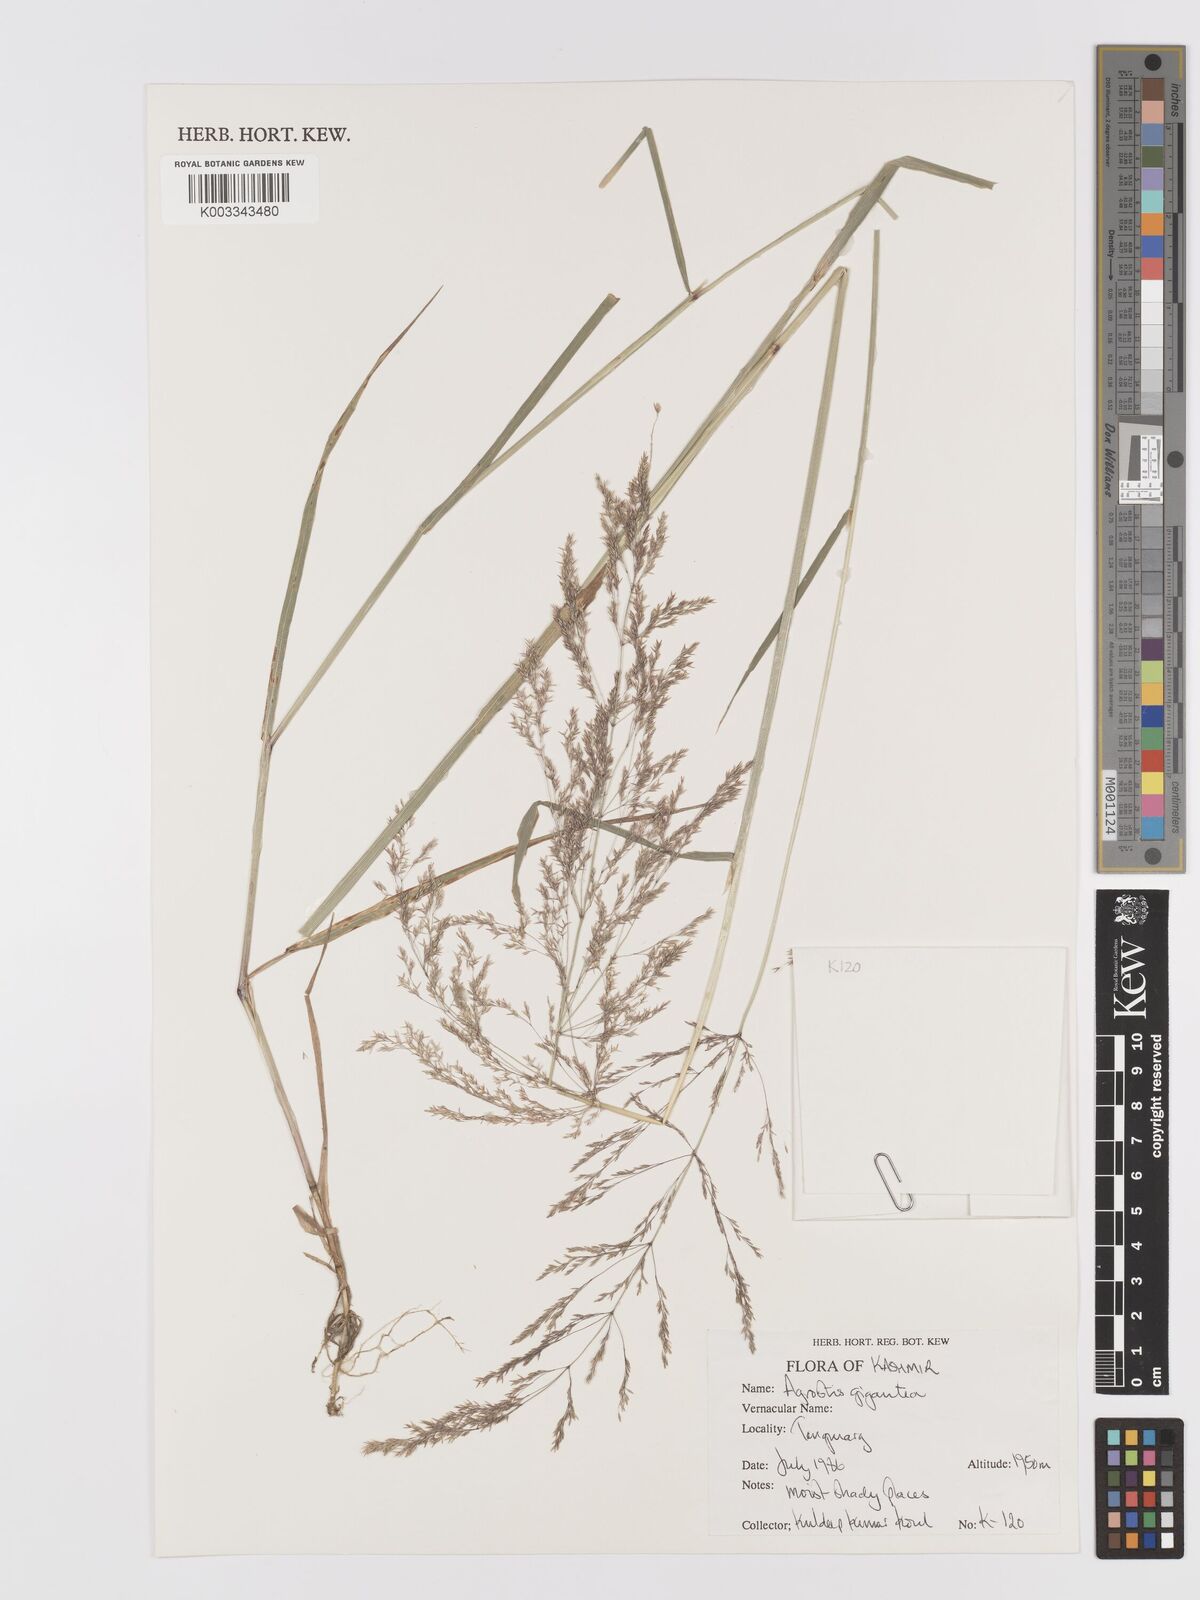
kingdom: Plantae
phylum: Tracheophyta
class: Liliopsida
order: Poales
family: Poaceae
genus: Agrostis
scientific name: Agrostis gigantea
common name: Black bent
